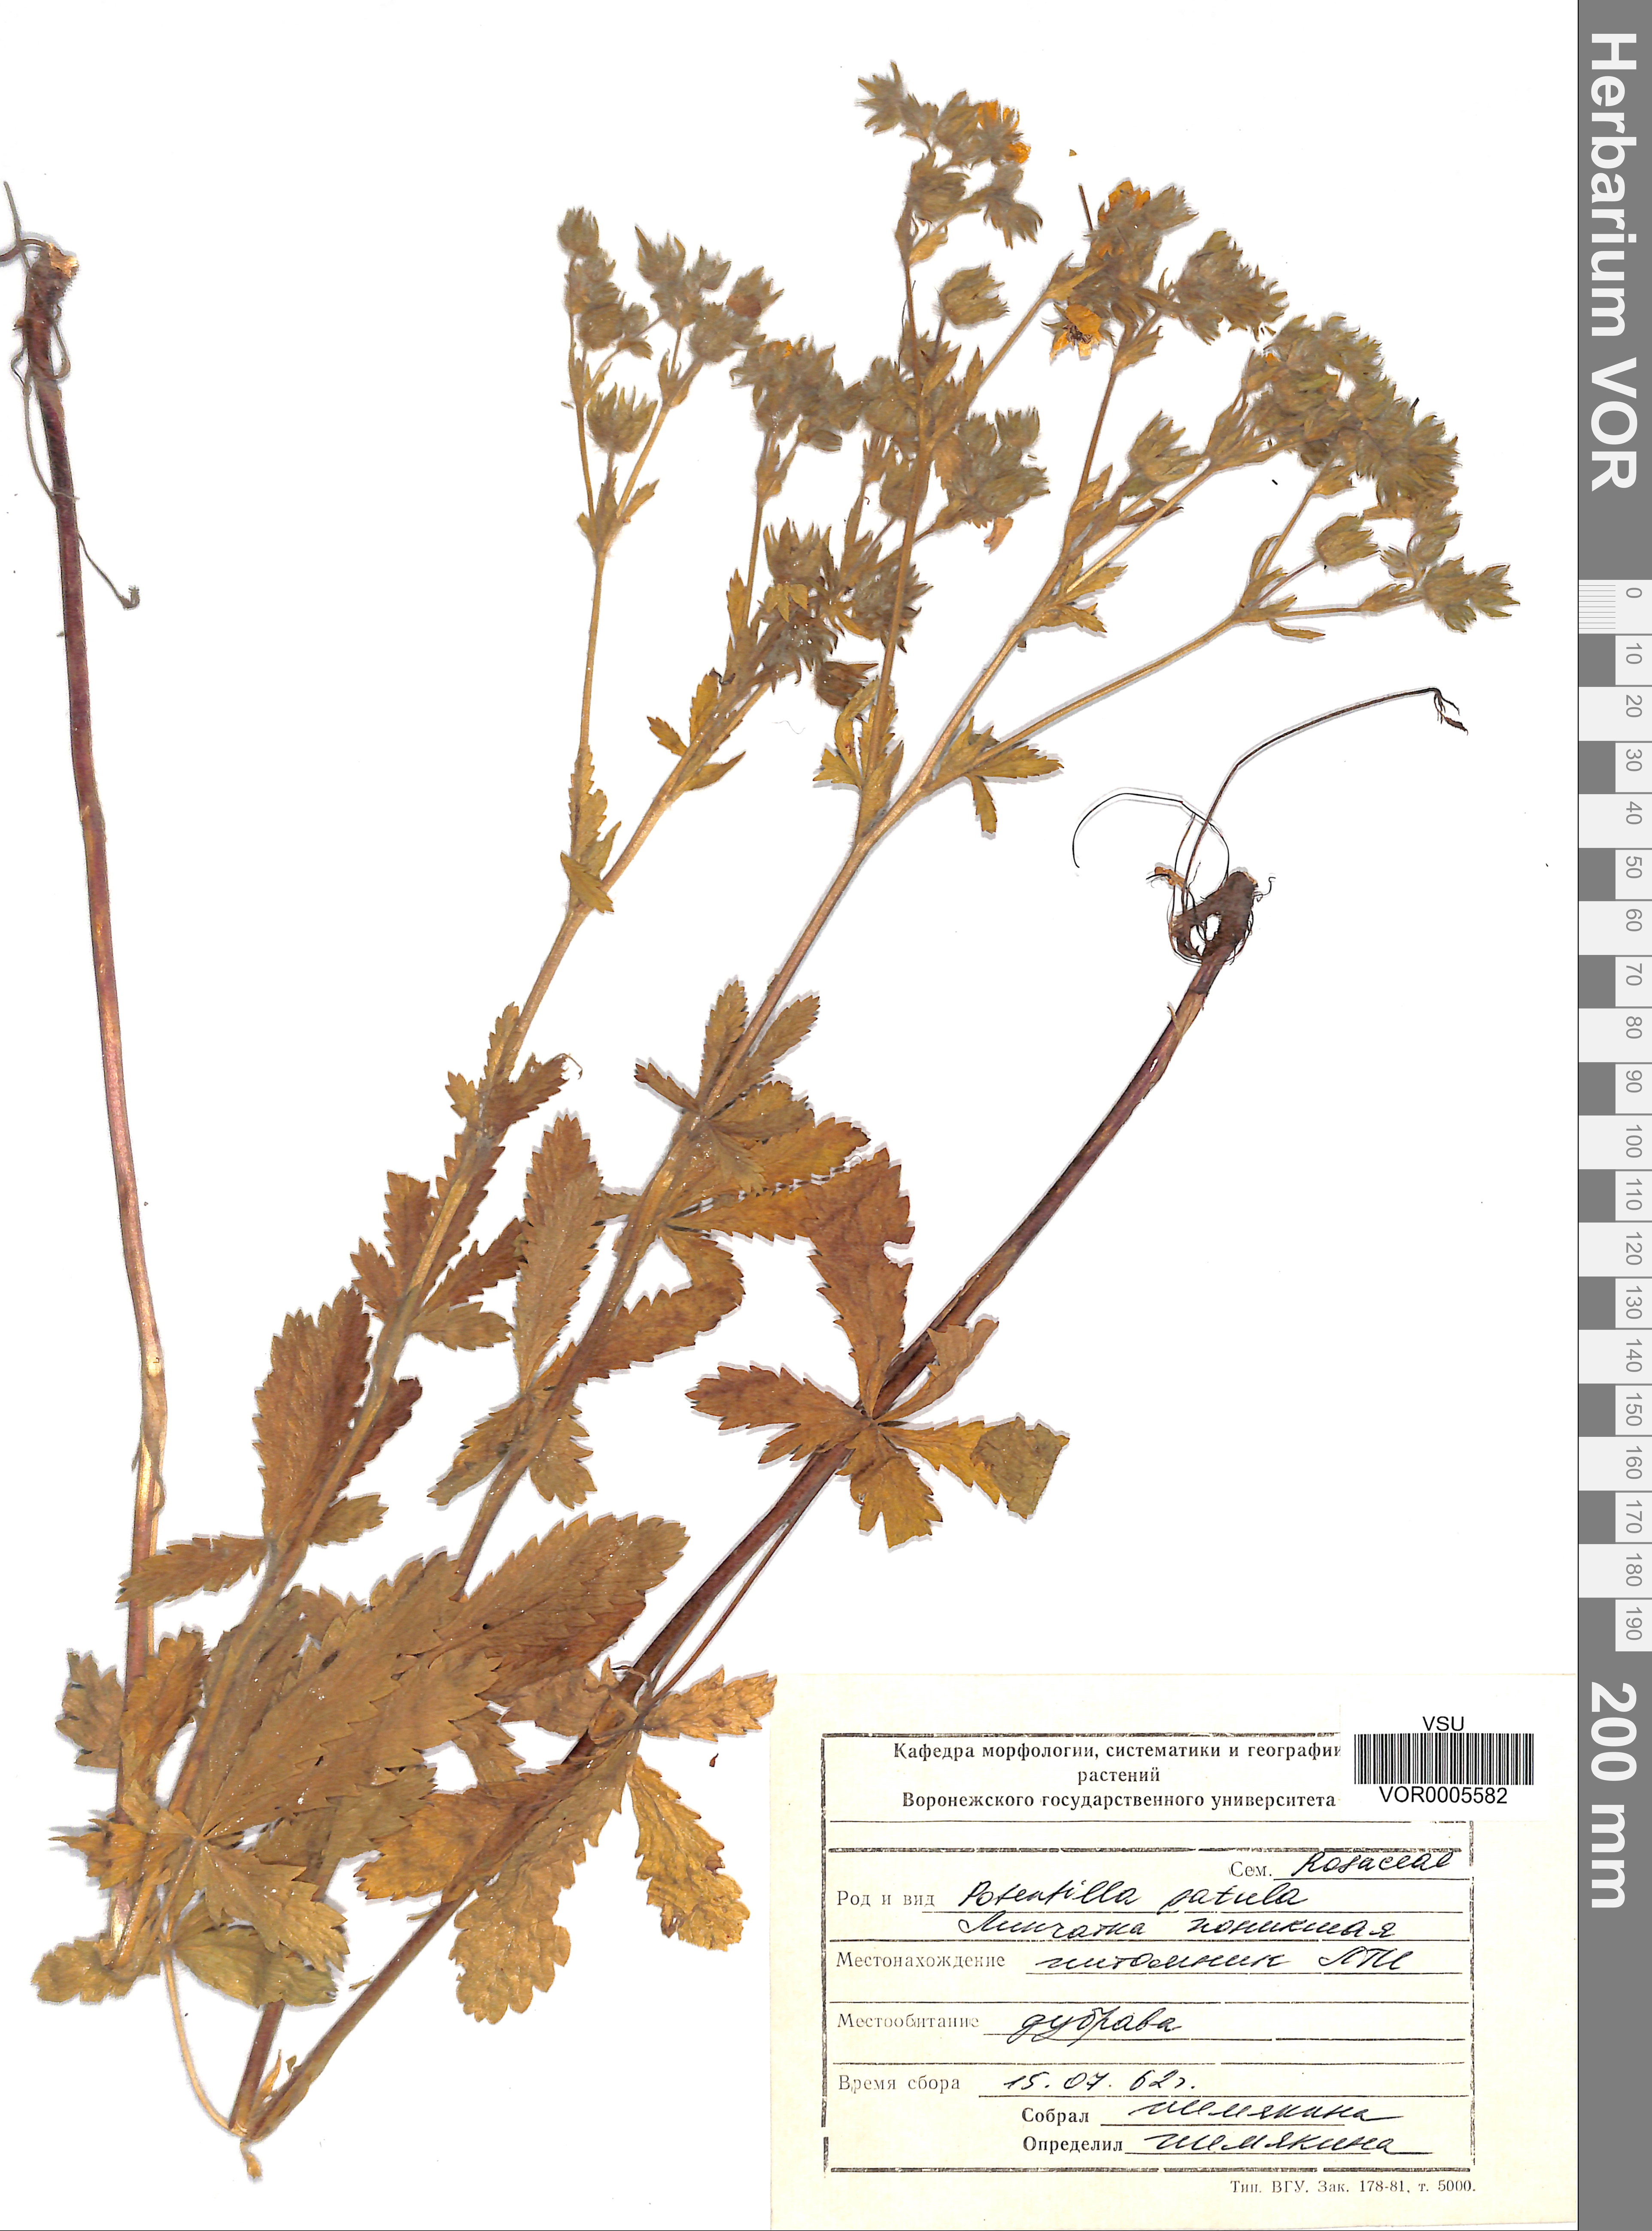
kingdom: Plantae
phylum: Tracheophyta
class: Magnoliopsida
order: Rosales
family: Rosaceae
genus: Potentilla
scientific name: Potentilla patula
